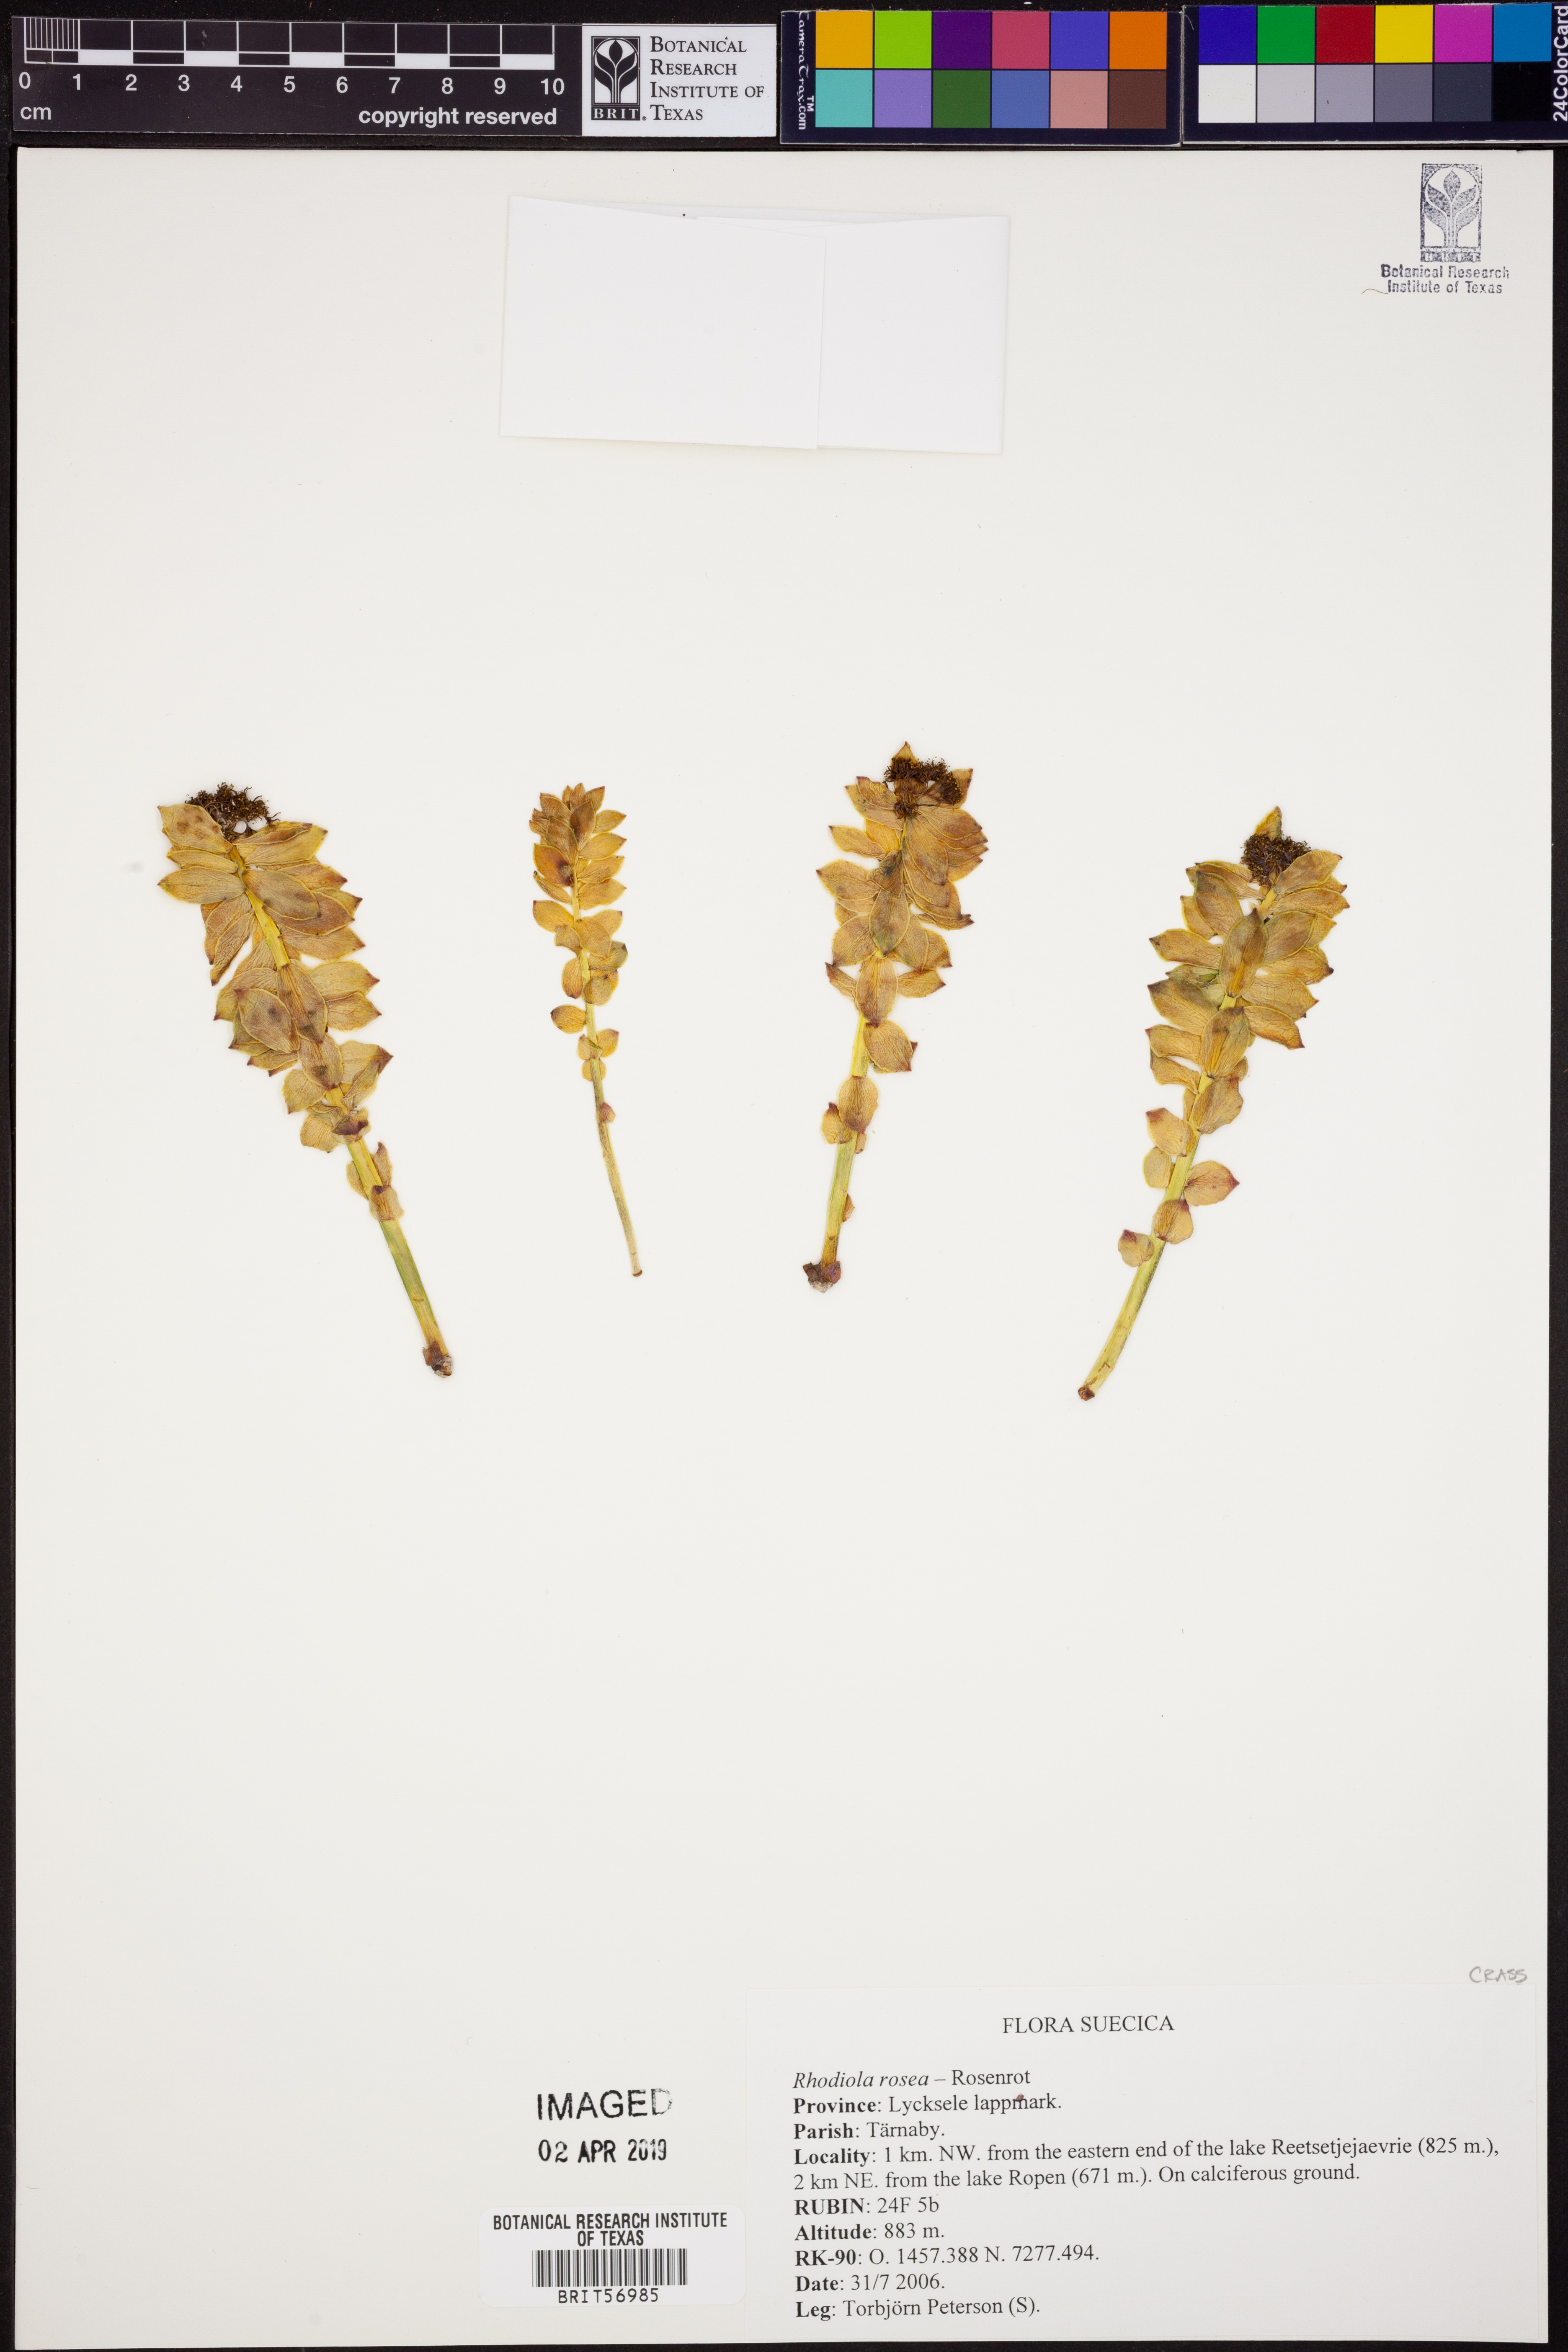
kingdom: Plantae
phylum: Tracheophyta
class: Magnoliopsida
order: Saxifragales
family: Crassulaceae
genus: Rhodiola
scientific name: Rhodiola rosea
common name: Roseroot
